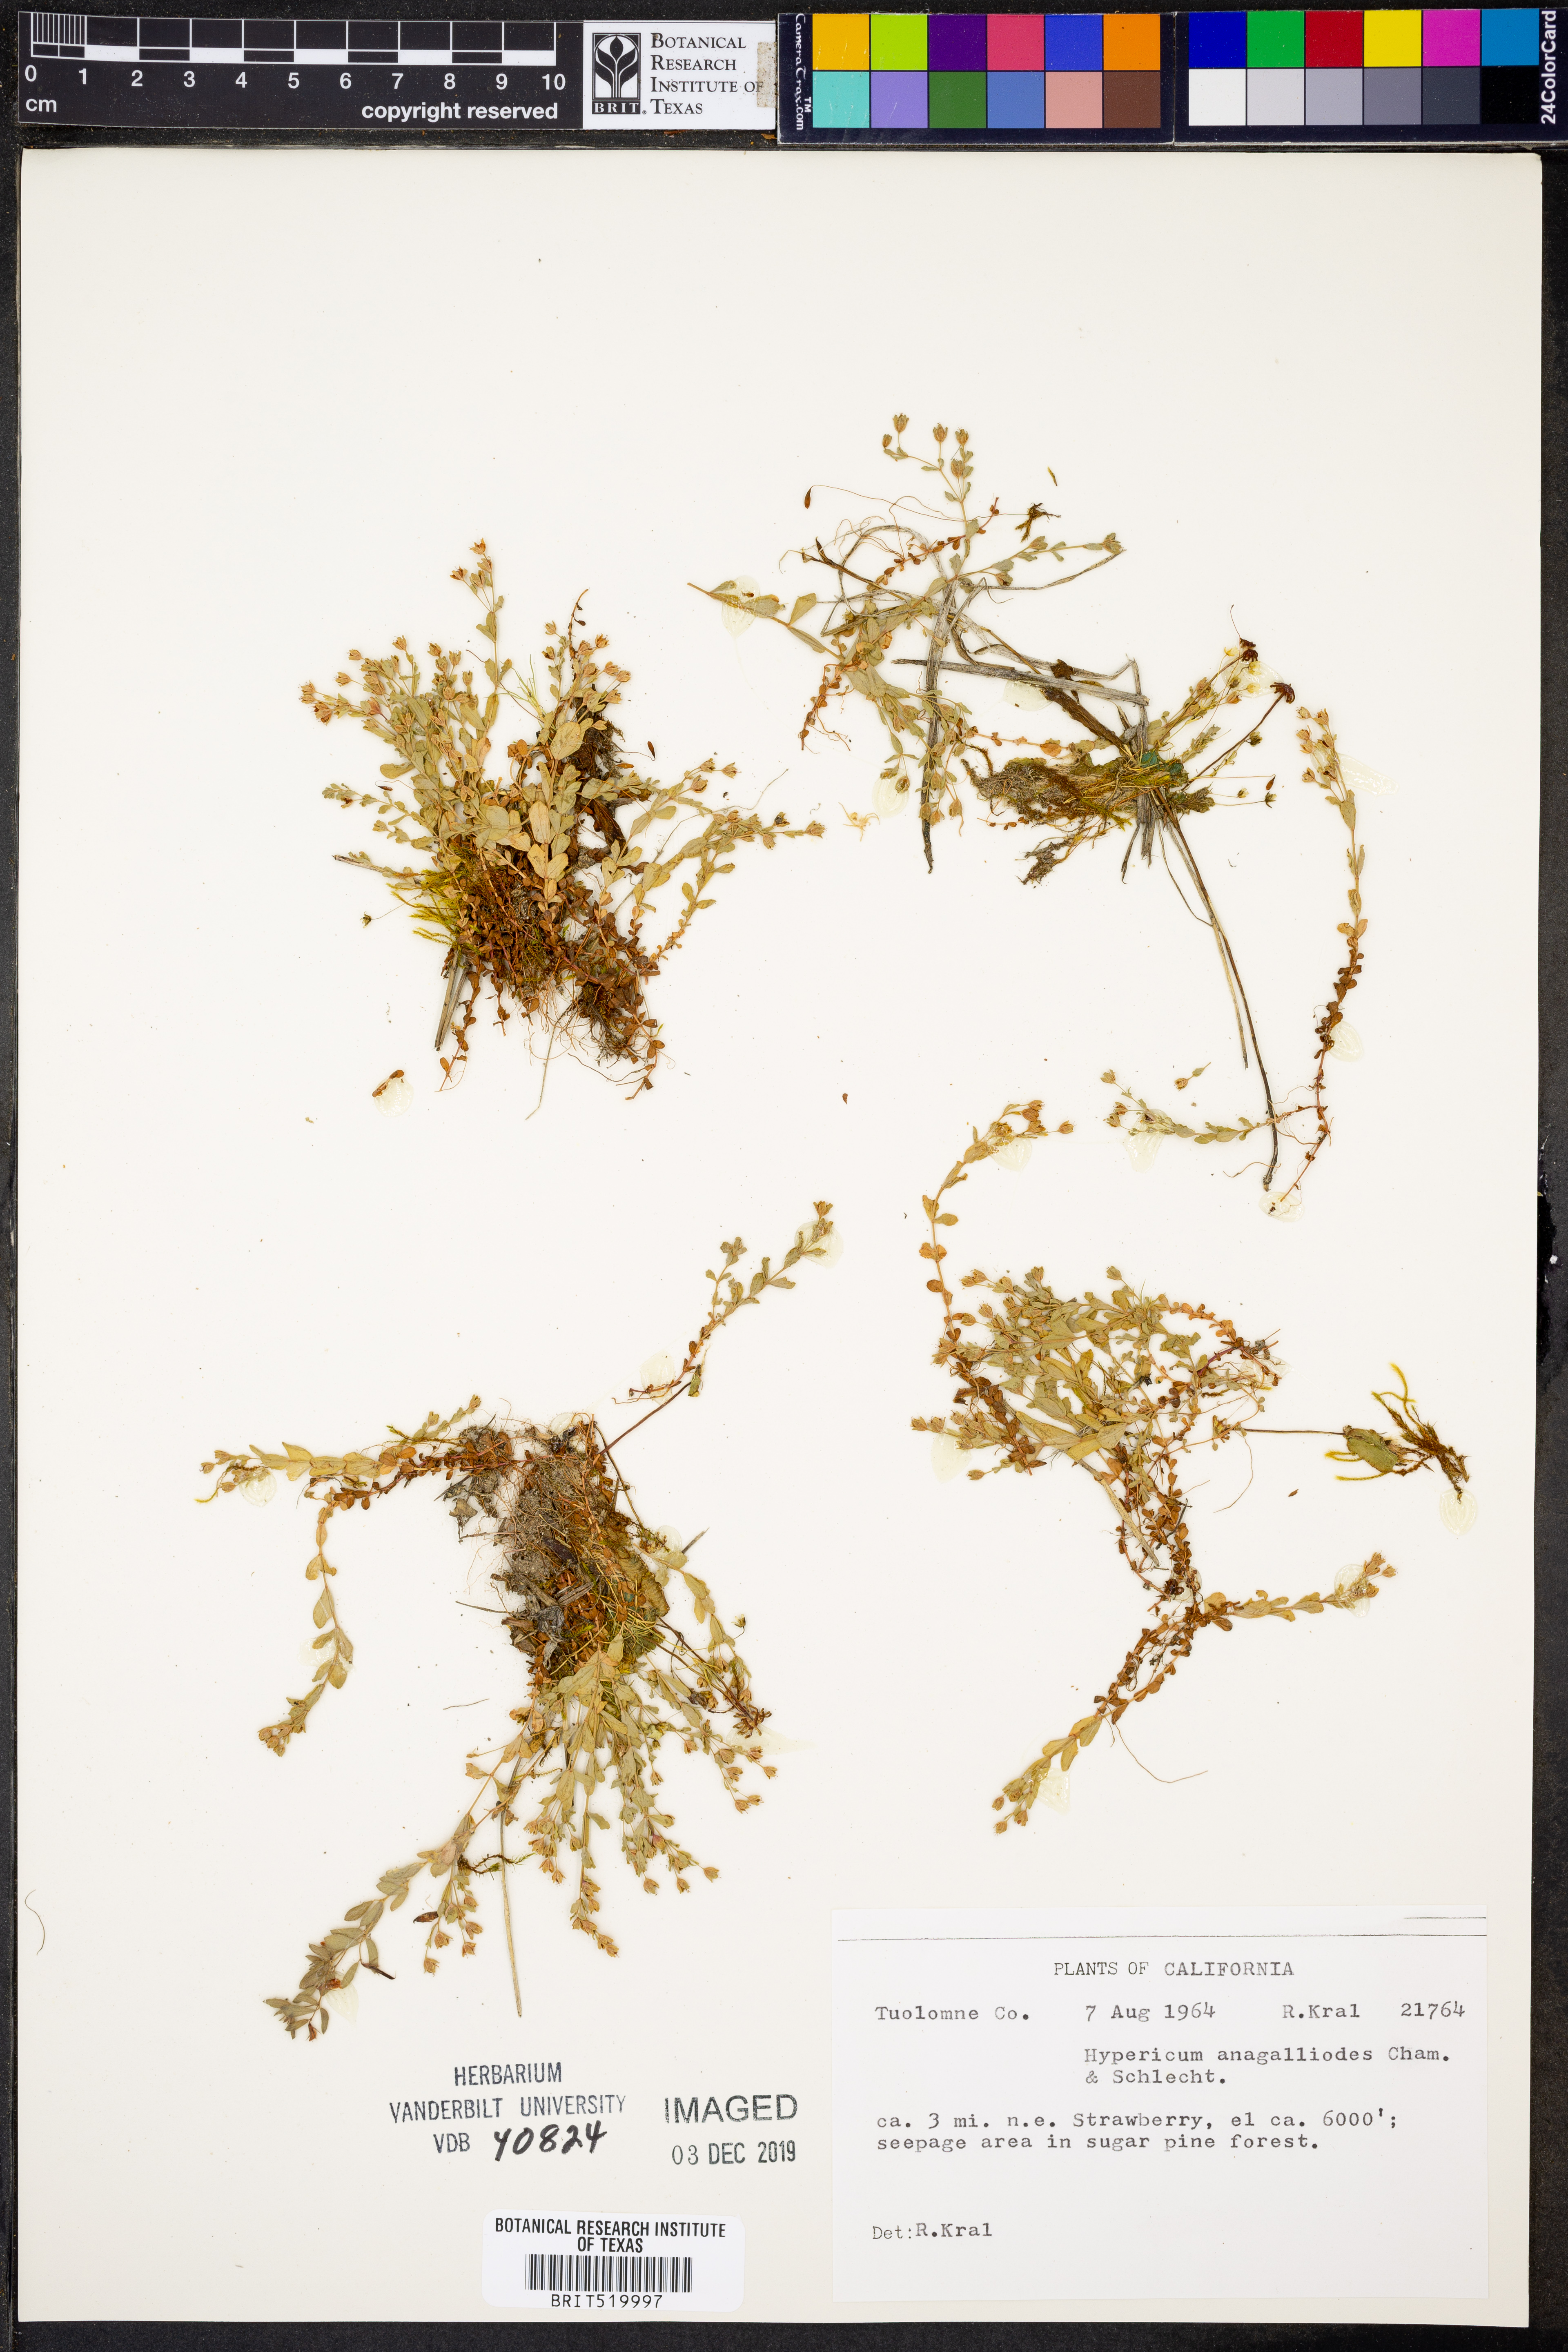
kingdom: Plantae
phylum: Tracheophyta
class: Magnoliopsida
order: Malpighiales
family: Hypericaceae
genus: Hypericum
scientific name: Hypericum anagalloides
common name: Bog st. john's-wort
